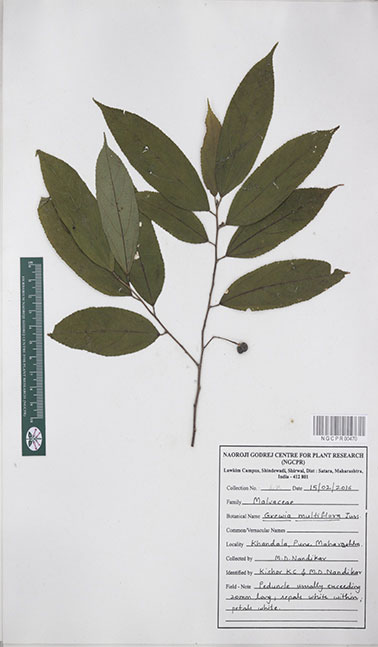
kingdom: Plantae
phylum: Tracheophyta
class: Magnoliopsida
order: Malvales
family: Malvaceae
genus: Grewia
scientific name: Grewia multiflora
